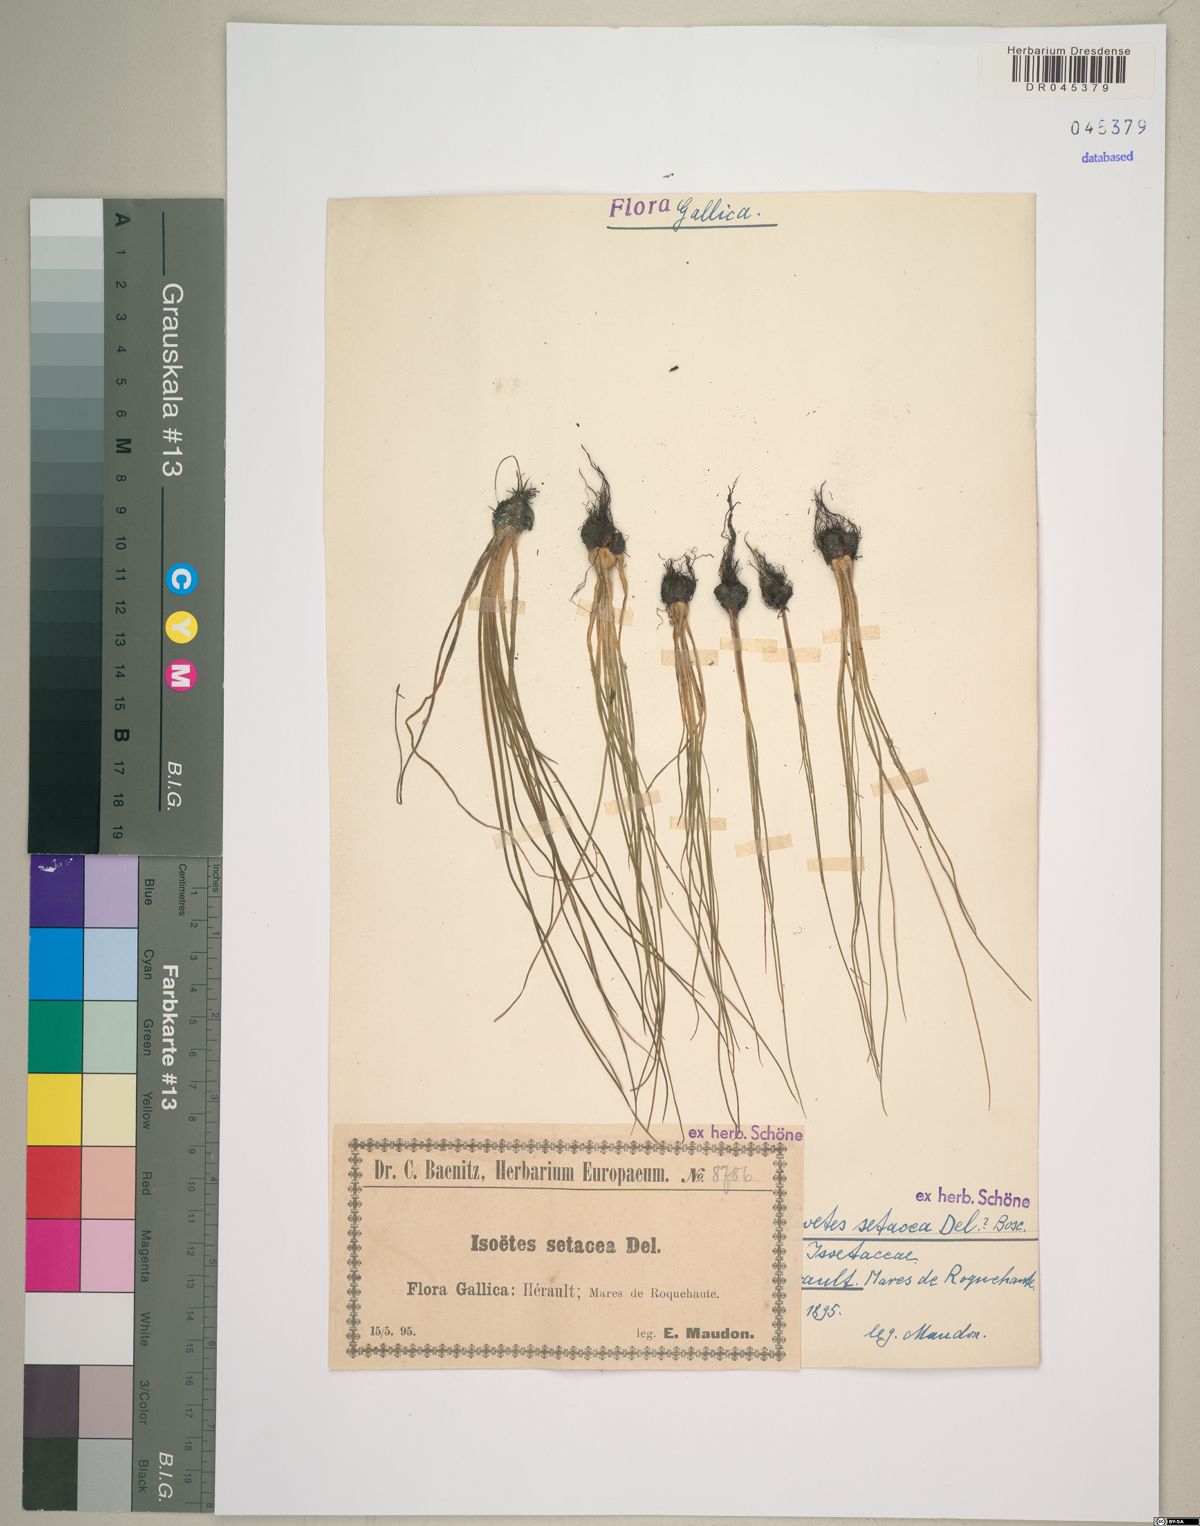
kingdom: Plantae
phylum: Tracheophyta
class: Lycopodiopsida
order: Isoetales
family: Isoetaceae
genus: Isoetes
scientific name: Isoetes lacustris
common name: Common quillwort
